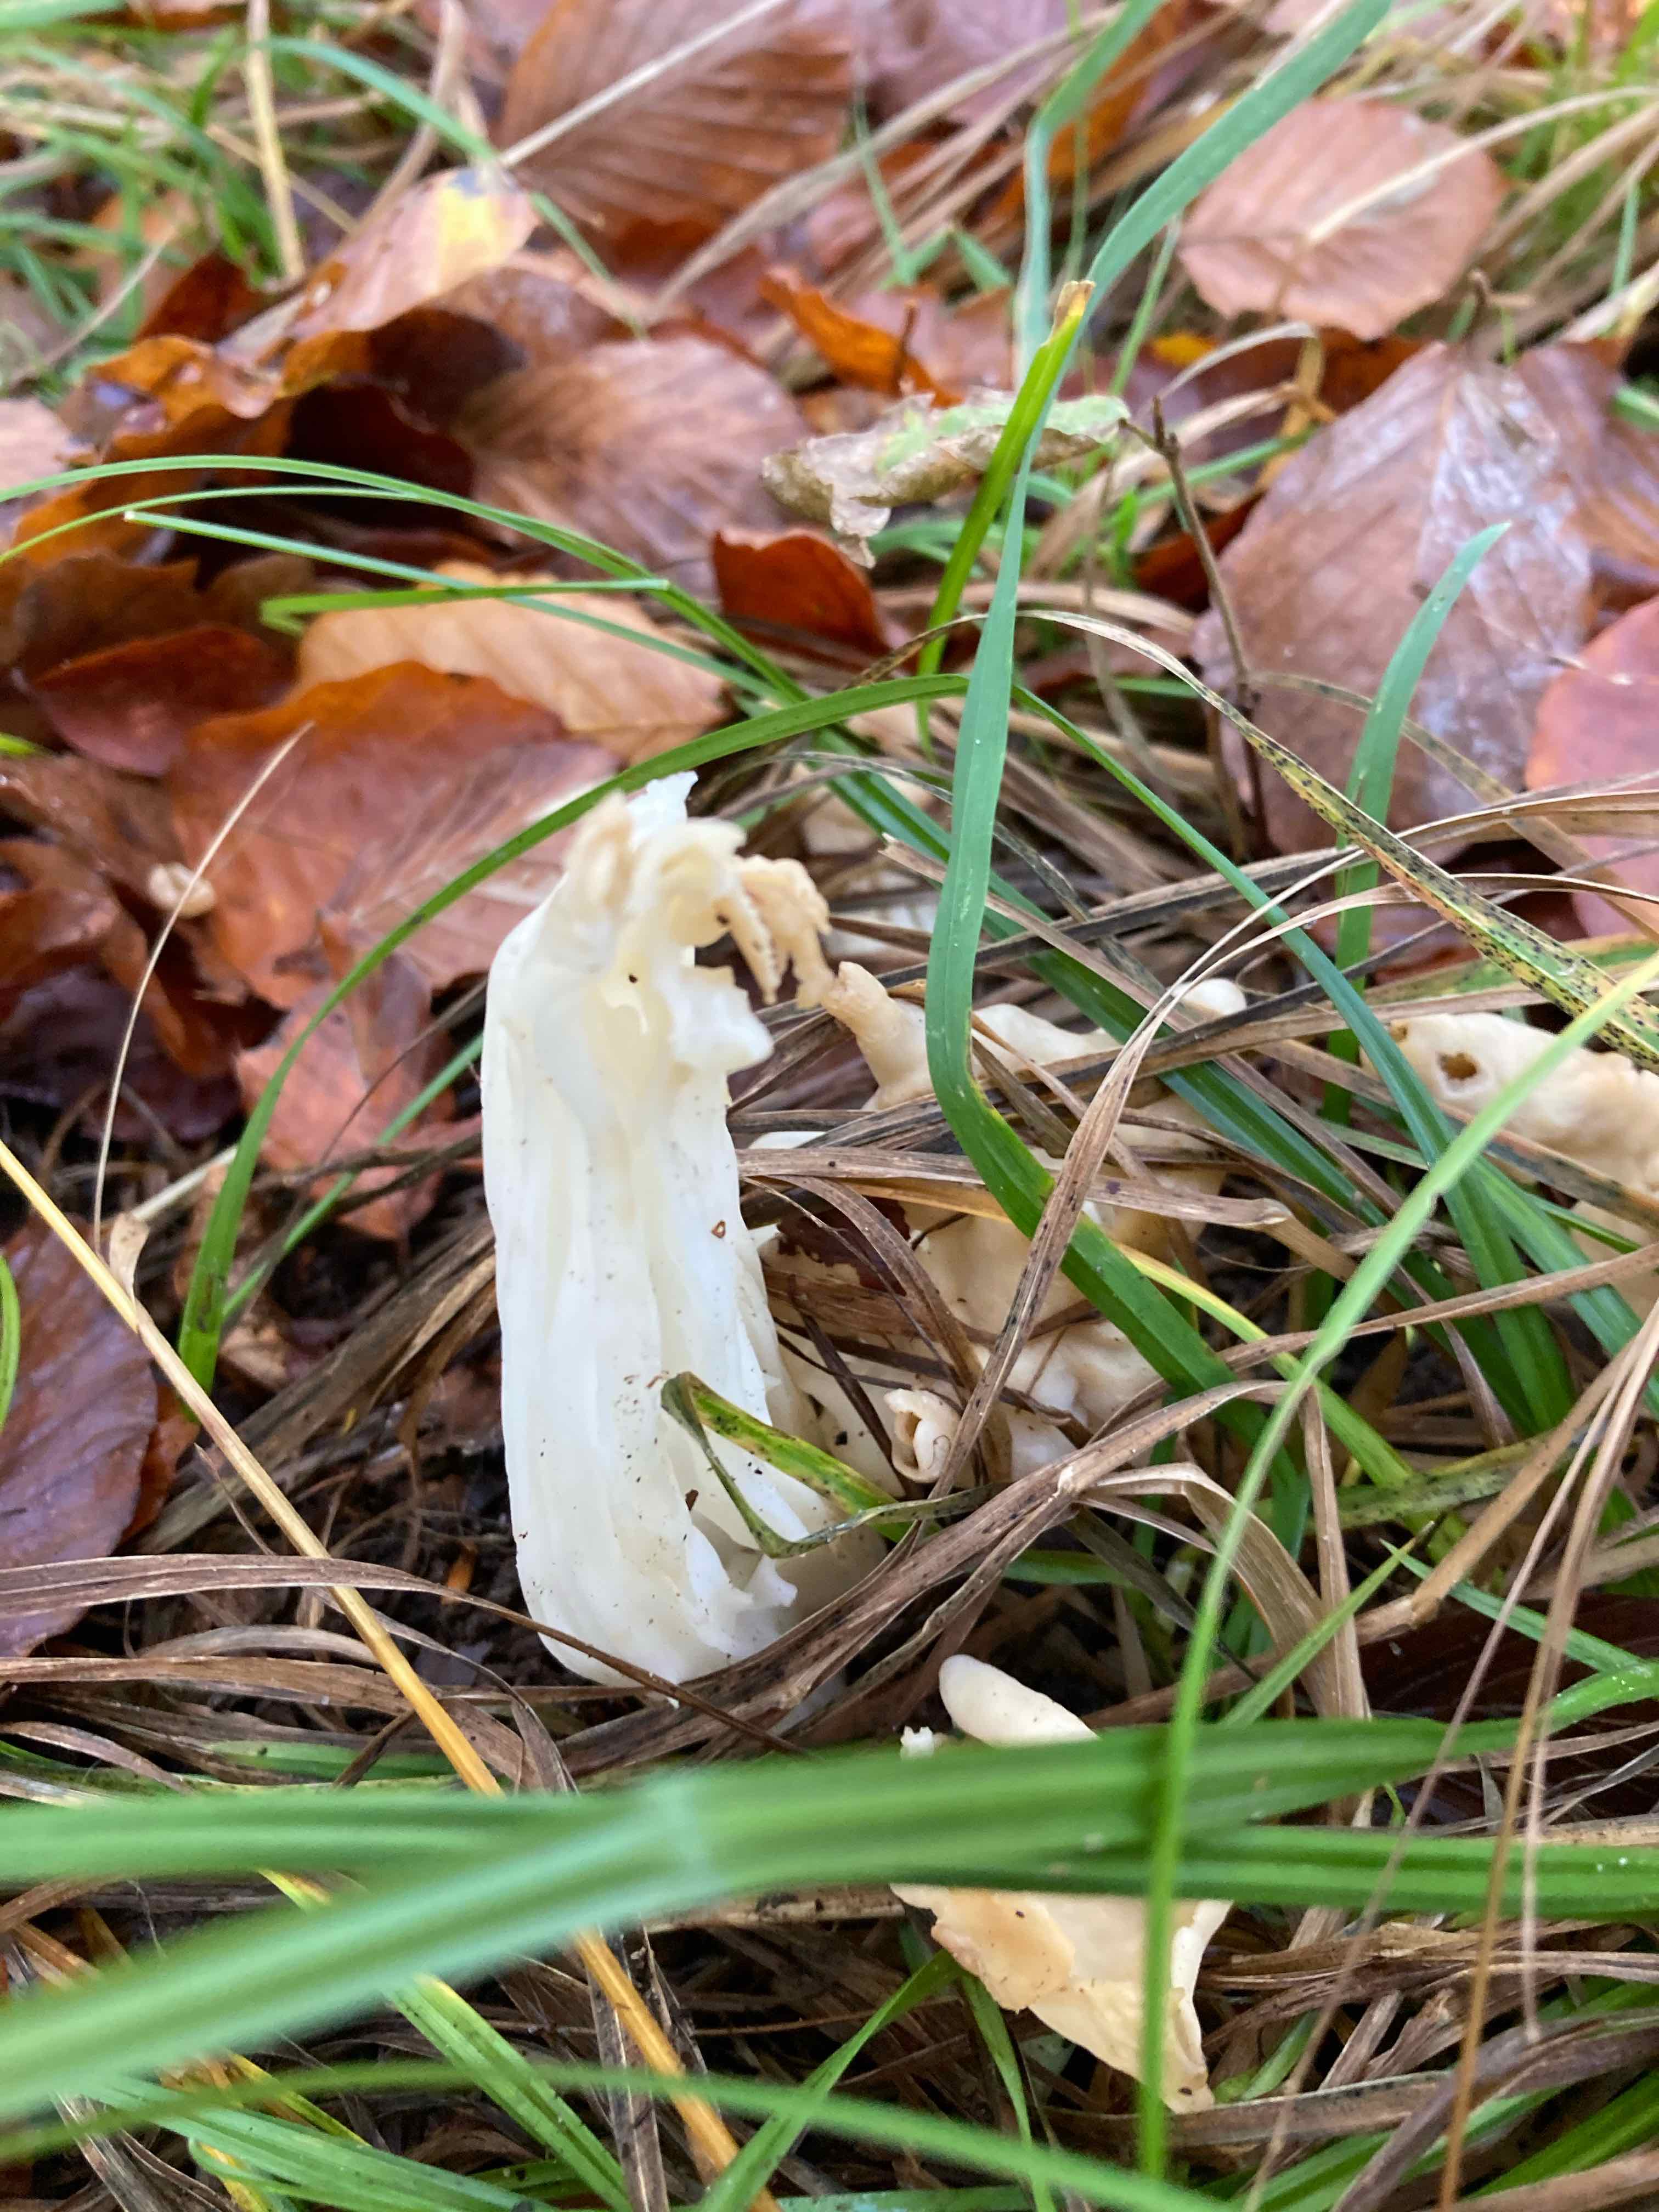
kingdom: Fungi
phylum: Ascomycota
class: Pezizomycetes
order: Pezizales
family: Helvellaceae
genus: Helvella
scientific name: Helvella crispa
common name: kruset foldhat
